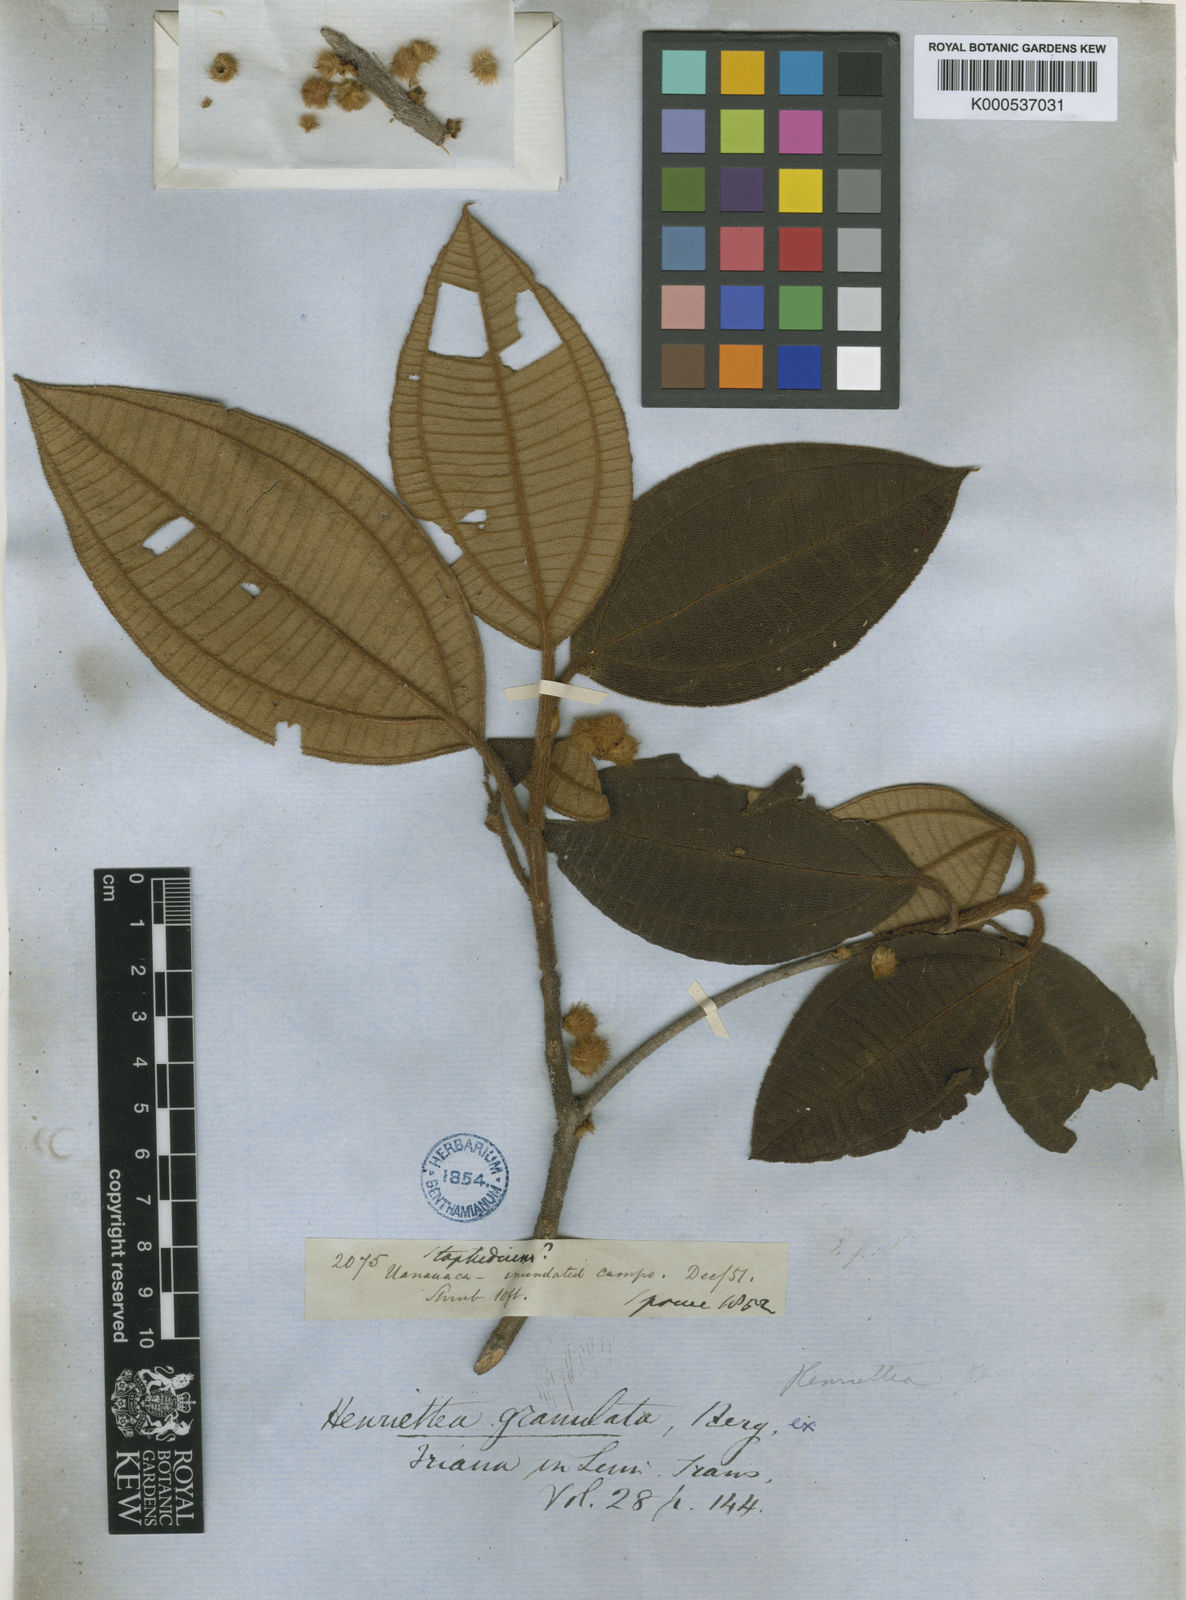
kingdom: Plantae
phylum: Tracheophyta
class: Magnoliopsida
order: Myrtales
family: Melastomataceae
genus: Henriettea
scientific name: Henriettea granulata
